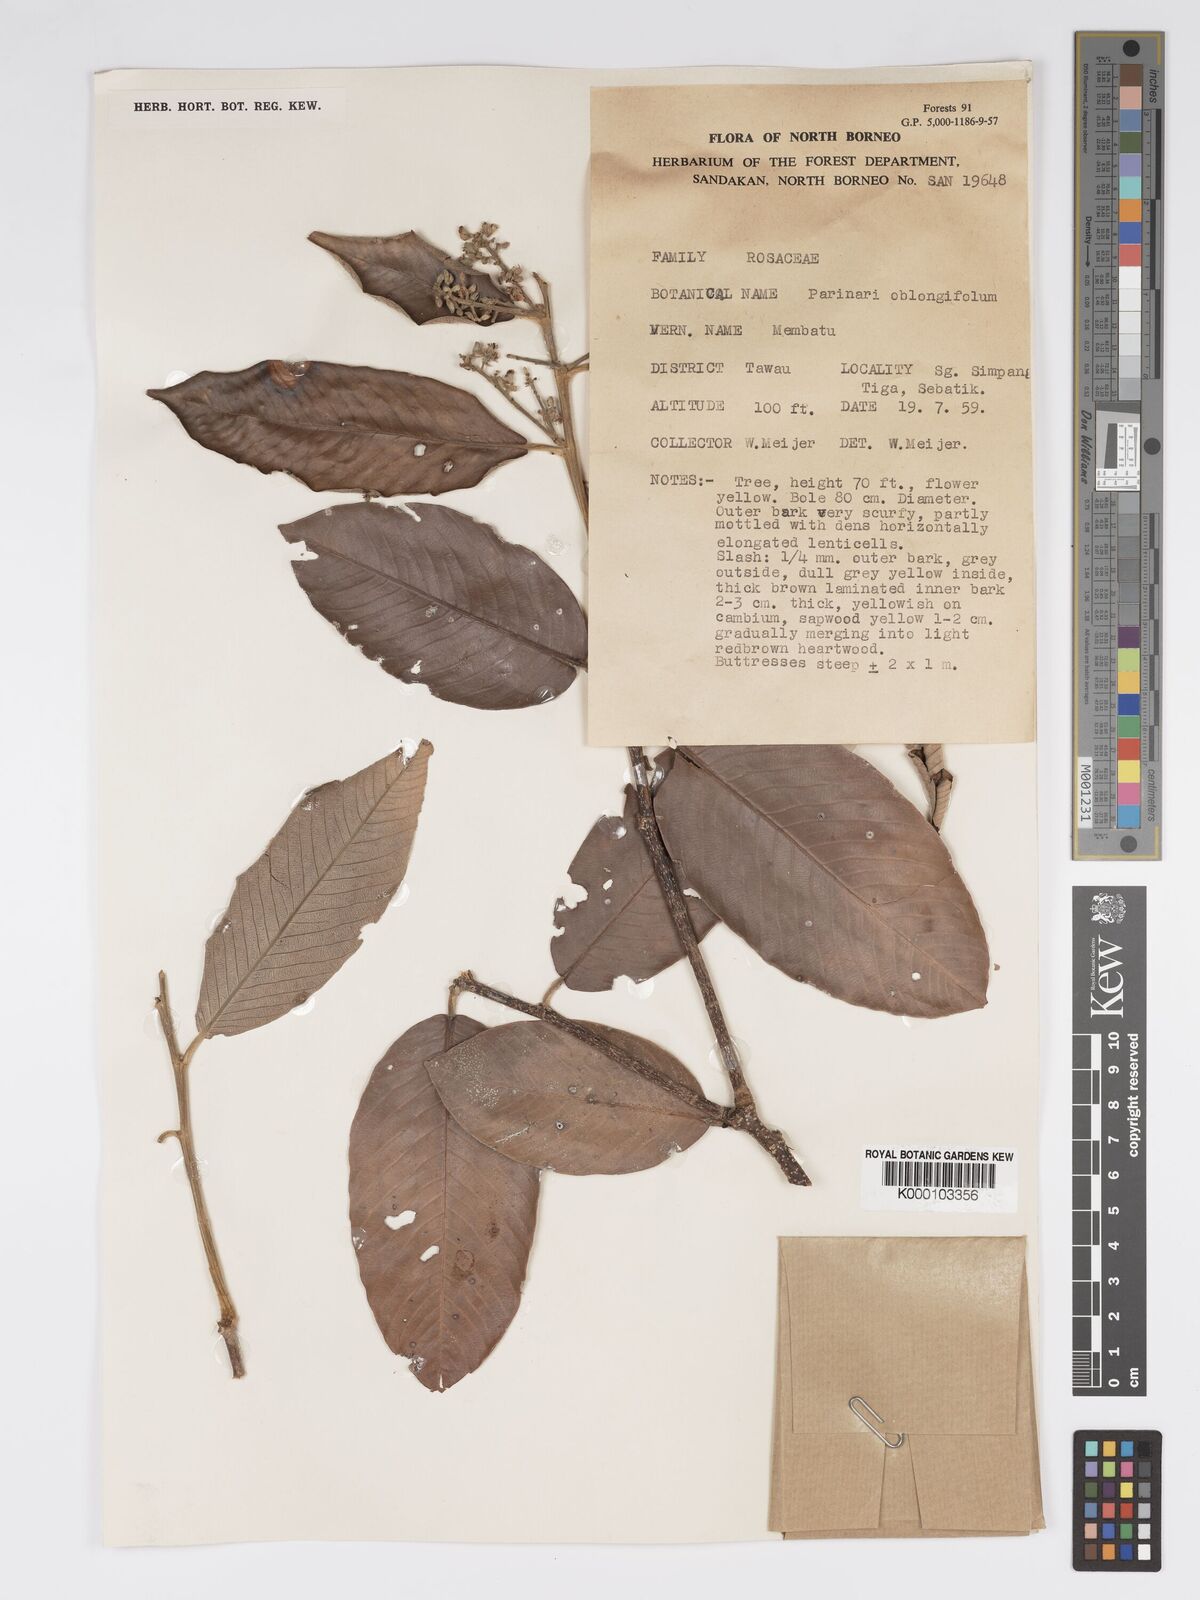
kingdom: Plantae
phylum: Tracheophyta
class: Magnoliopsida
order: Malpighiales
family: Chrysobalanaceae
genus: Parinari
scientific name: Parinari oblongifolia
